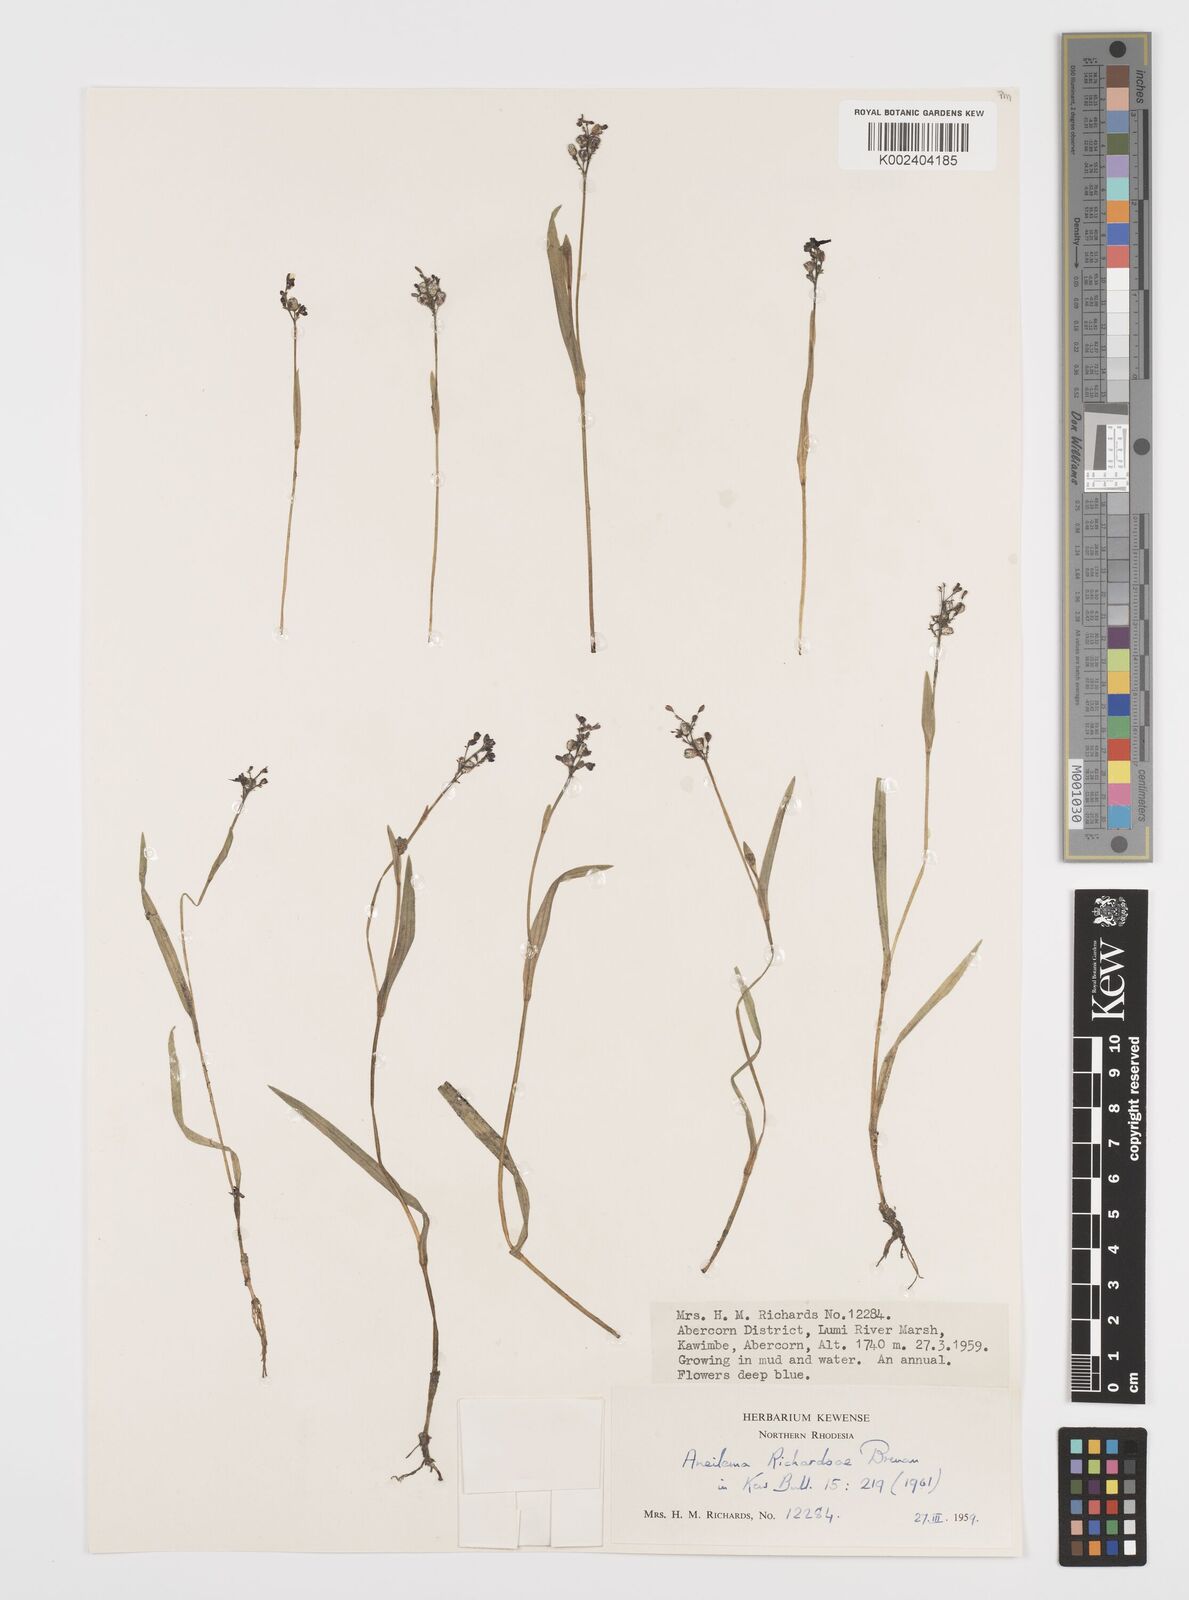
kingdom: Plantae
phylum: Tracheophyta
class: Liliopsida
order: Commelinales
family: Commelinaceae
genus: Aneilema
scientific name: Aneilema richardsiae
